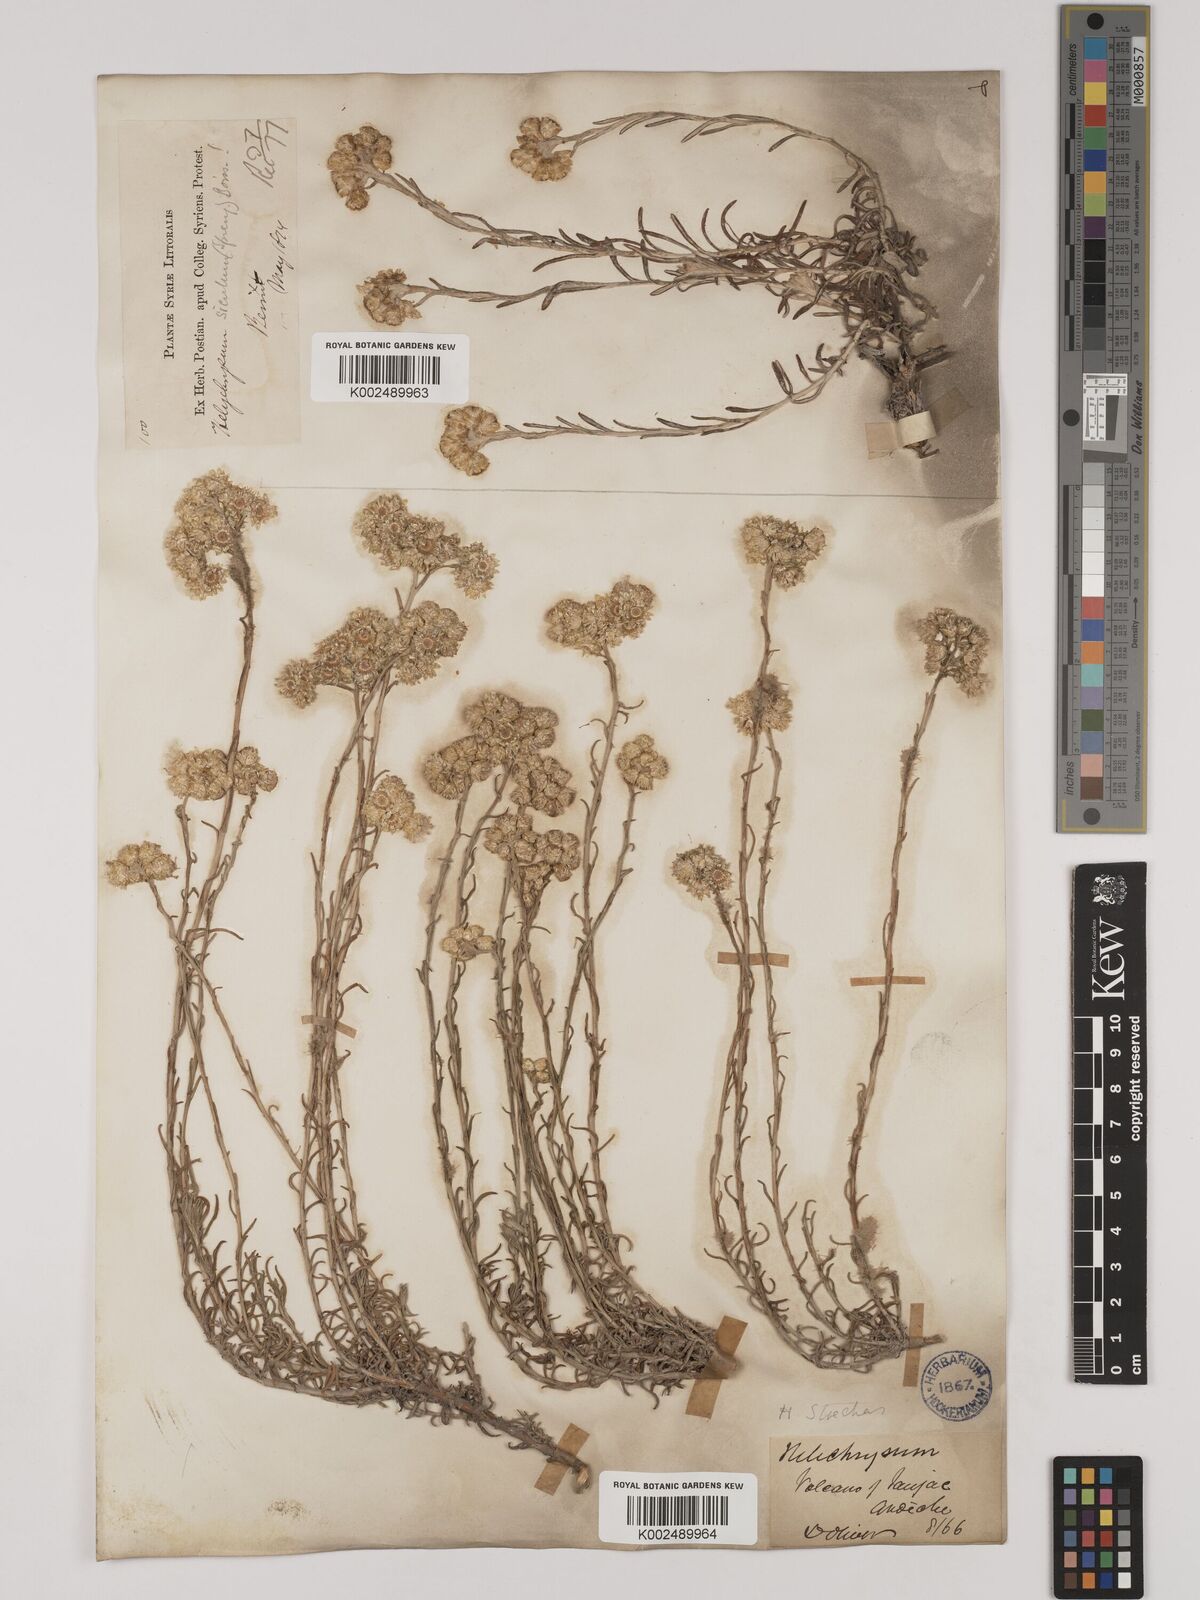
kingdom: Plantae
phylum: Tracheophyta
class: Magnoliopsida
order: Asterales
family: Asteraceae
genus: Helichrysum
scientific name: Helichrysum stoechas
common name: Goldilocks
